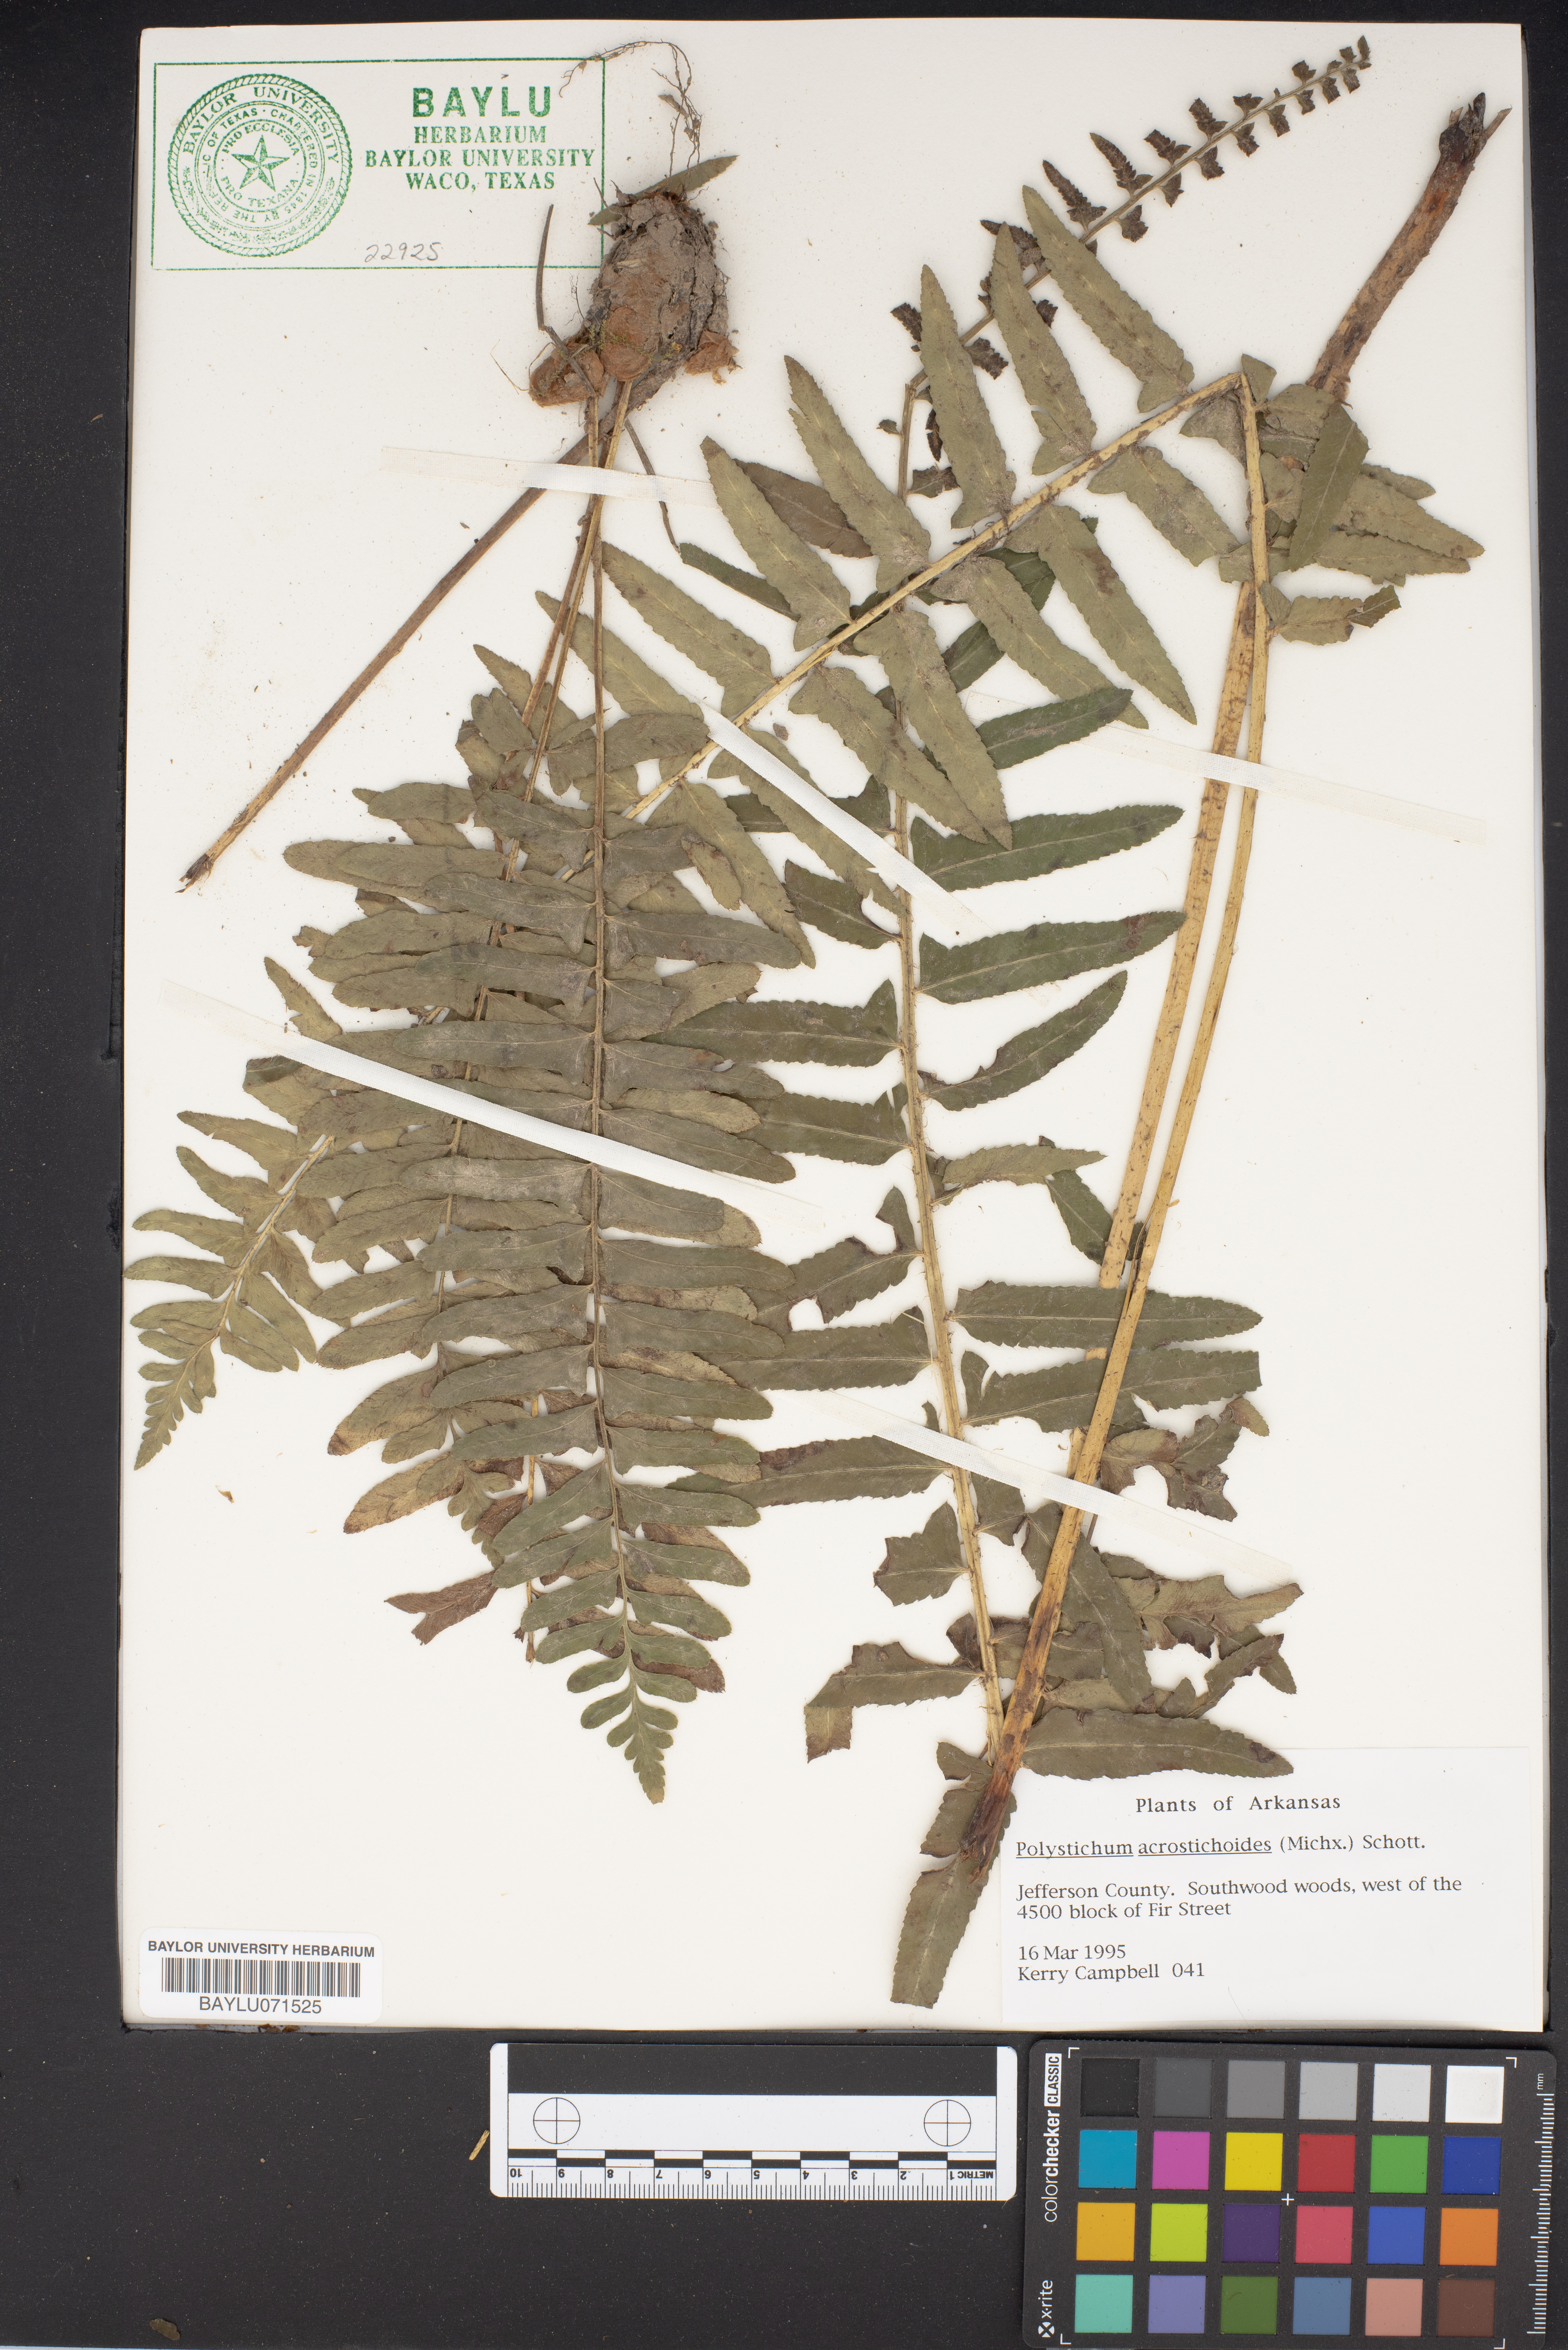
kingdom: Plantae
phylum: Tracheophyta
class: Polypodiopsida
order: Polypodiales
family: Dryopteridaceae
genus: Polystichum
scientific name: Polystichum acrostichoides
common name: Christmas fern
